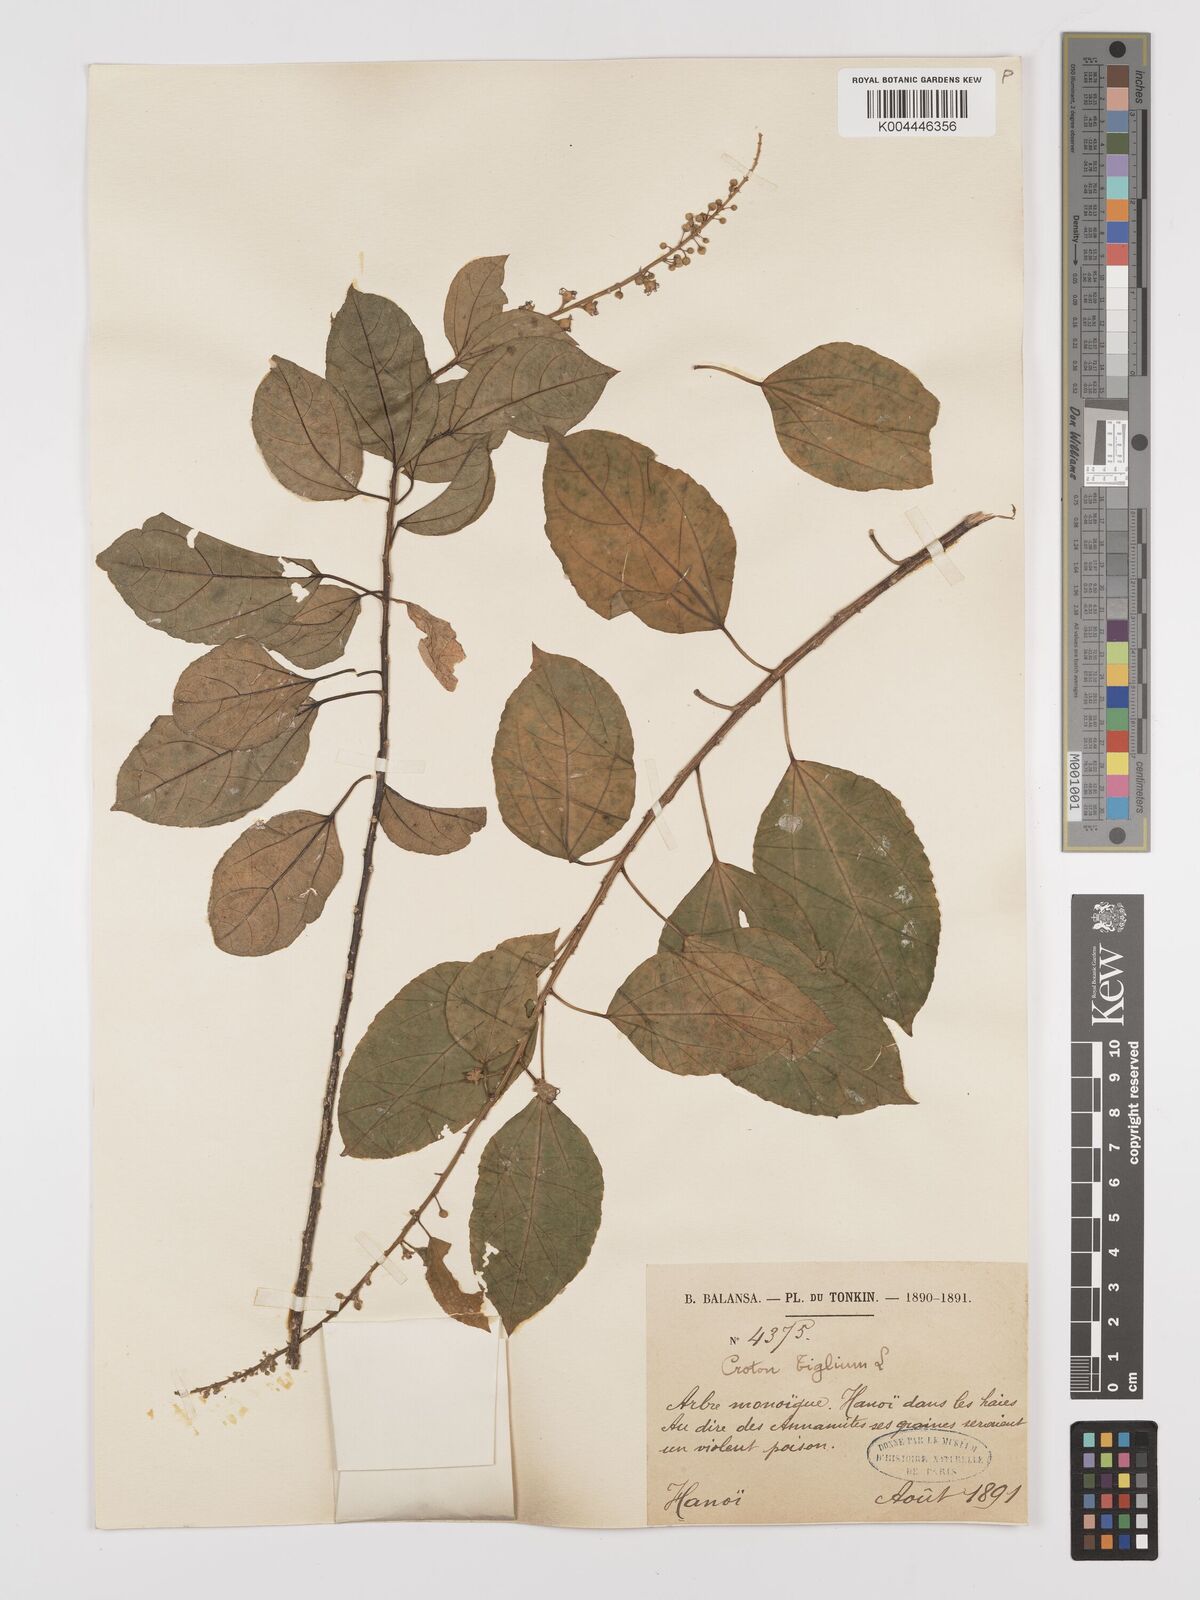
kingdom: Plantae
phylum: Tracheophyta
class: Magnoliopsida
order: Malpighiales
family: Euphorbiaceae
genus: Croton
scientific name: Croton tiglium
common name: Purging croton
